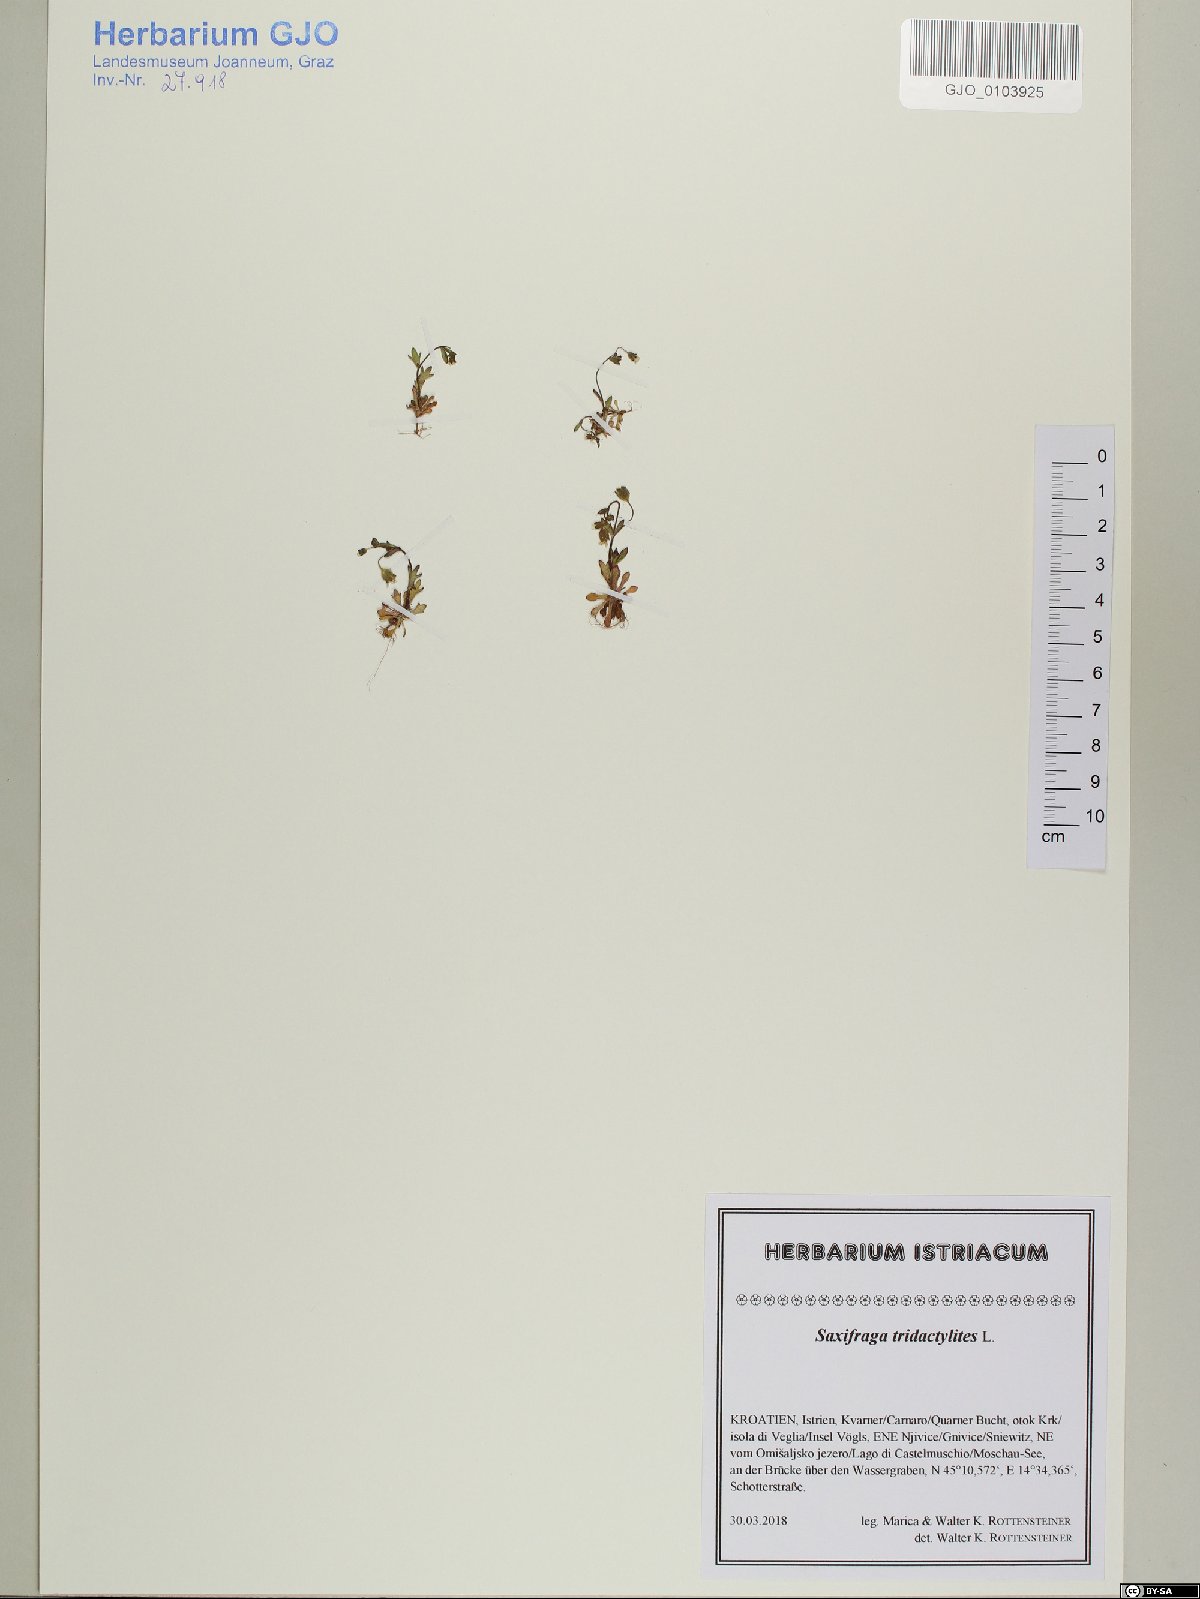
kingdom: Plantae
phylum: Tracheophyta
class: Magnoliopsida
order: Saxifragales
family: Saxifragaceae
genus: Saxifraga
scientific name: Saxifraga tridactylites
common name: Rue-leaved saxifrage
